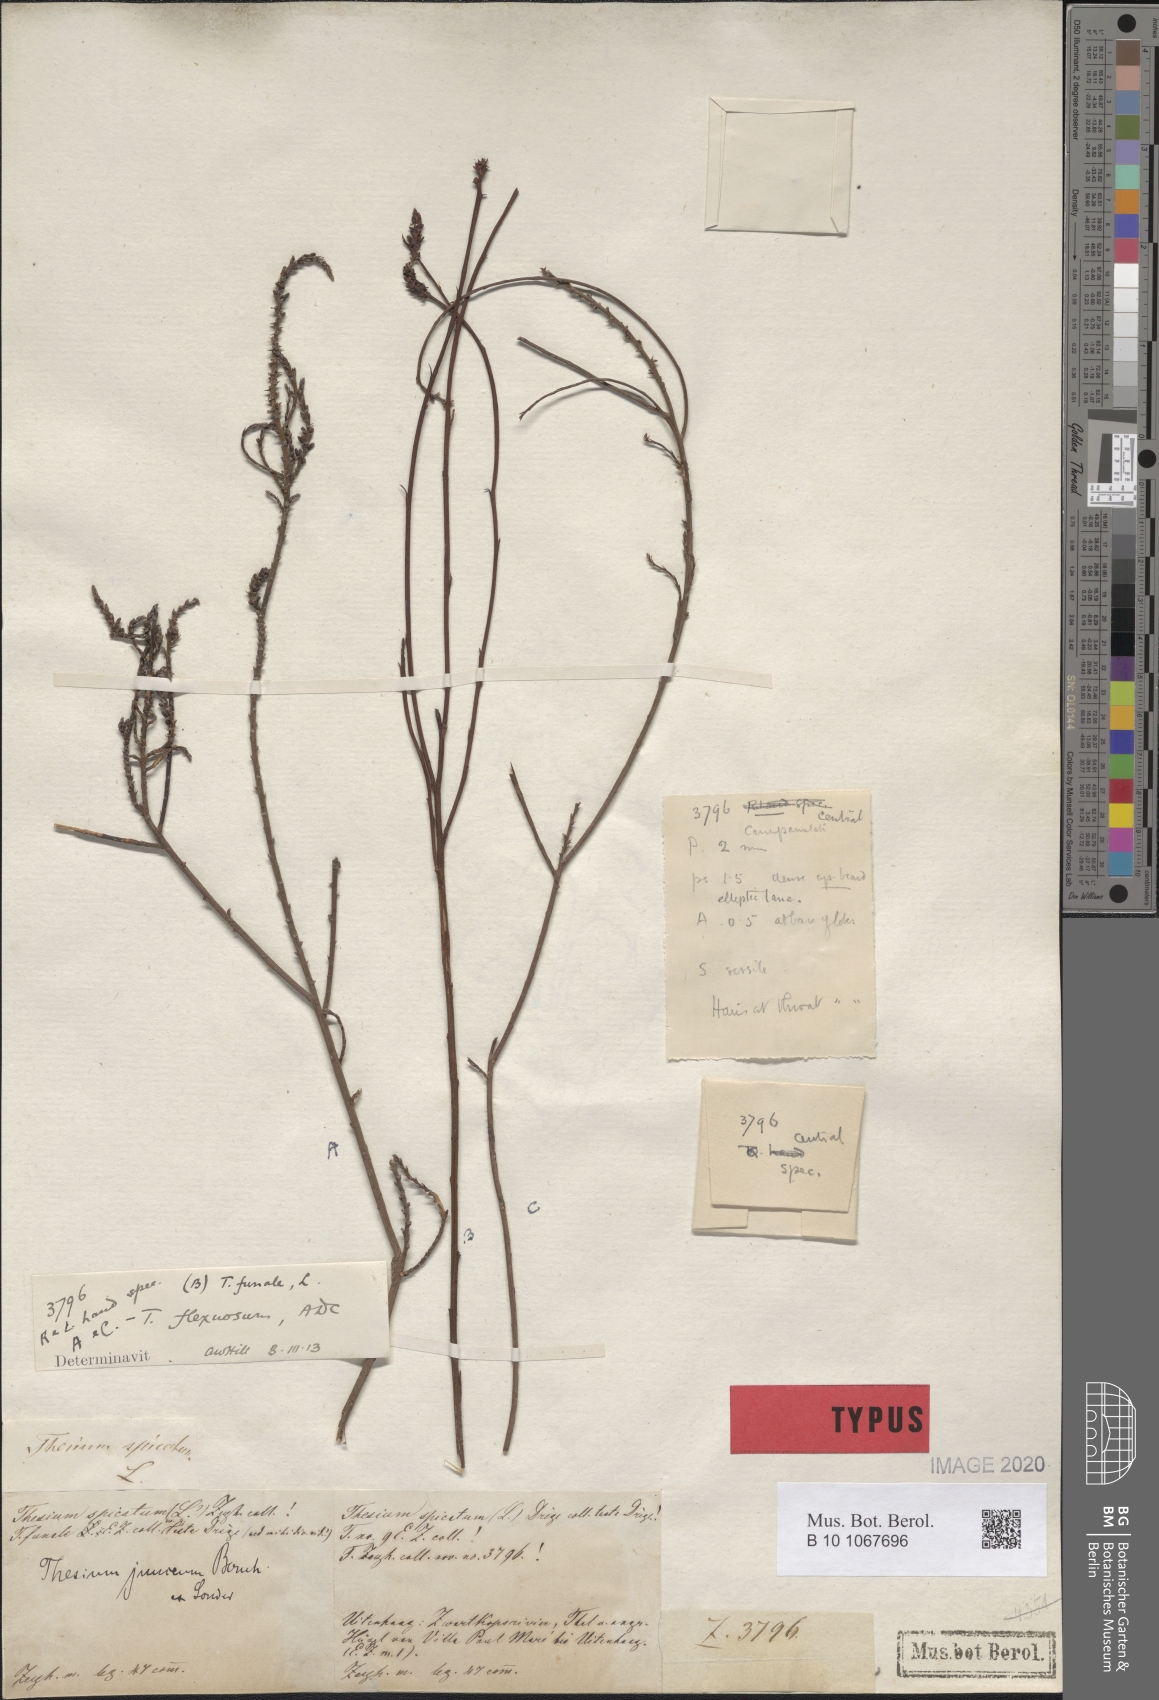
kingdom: Plantae
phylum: Tracheophyta
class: Magnoliopsida
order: Santalales
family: Thesiaceae
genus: Thesium
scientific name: Thesium flexuosum
